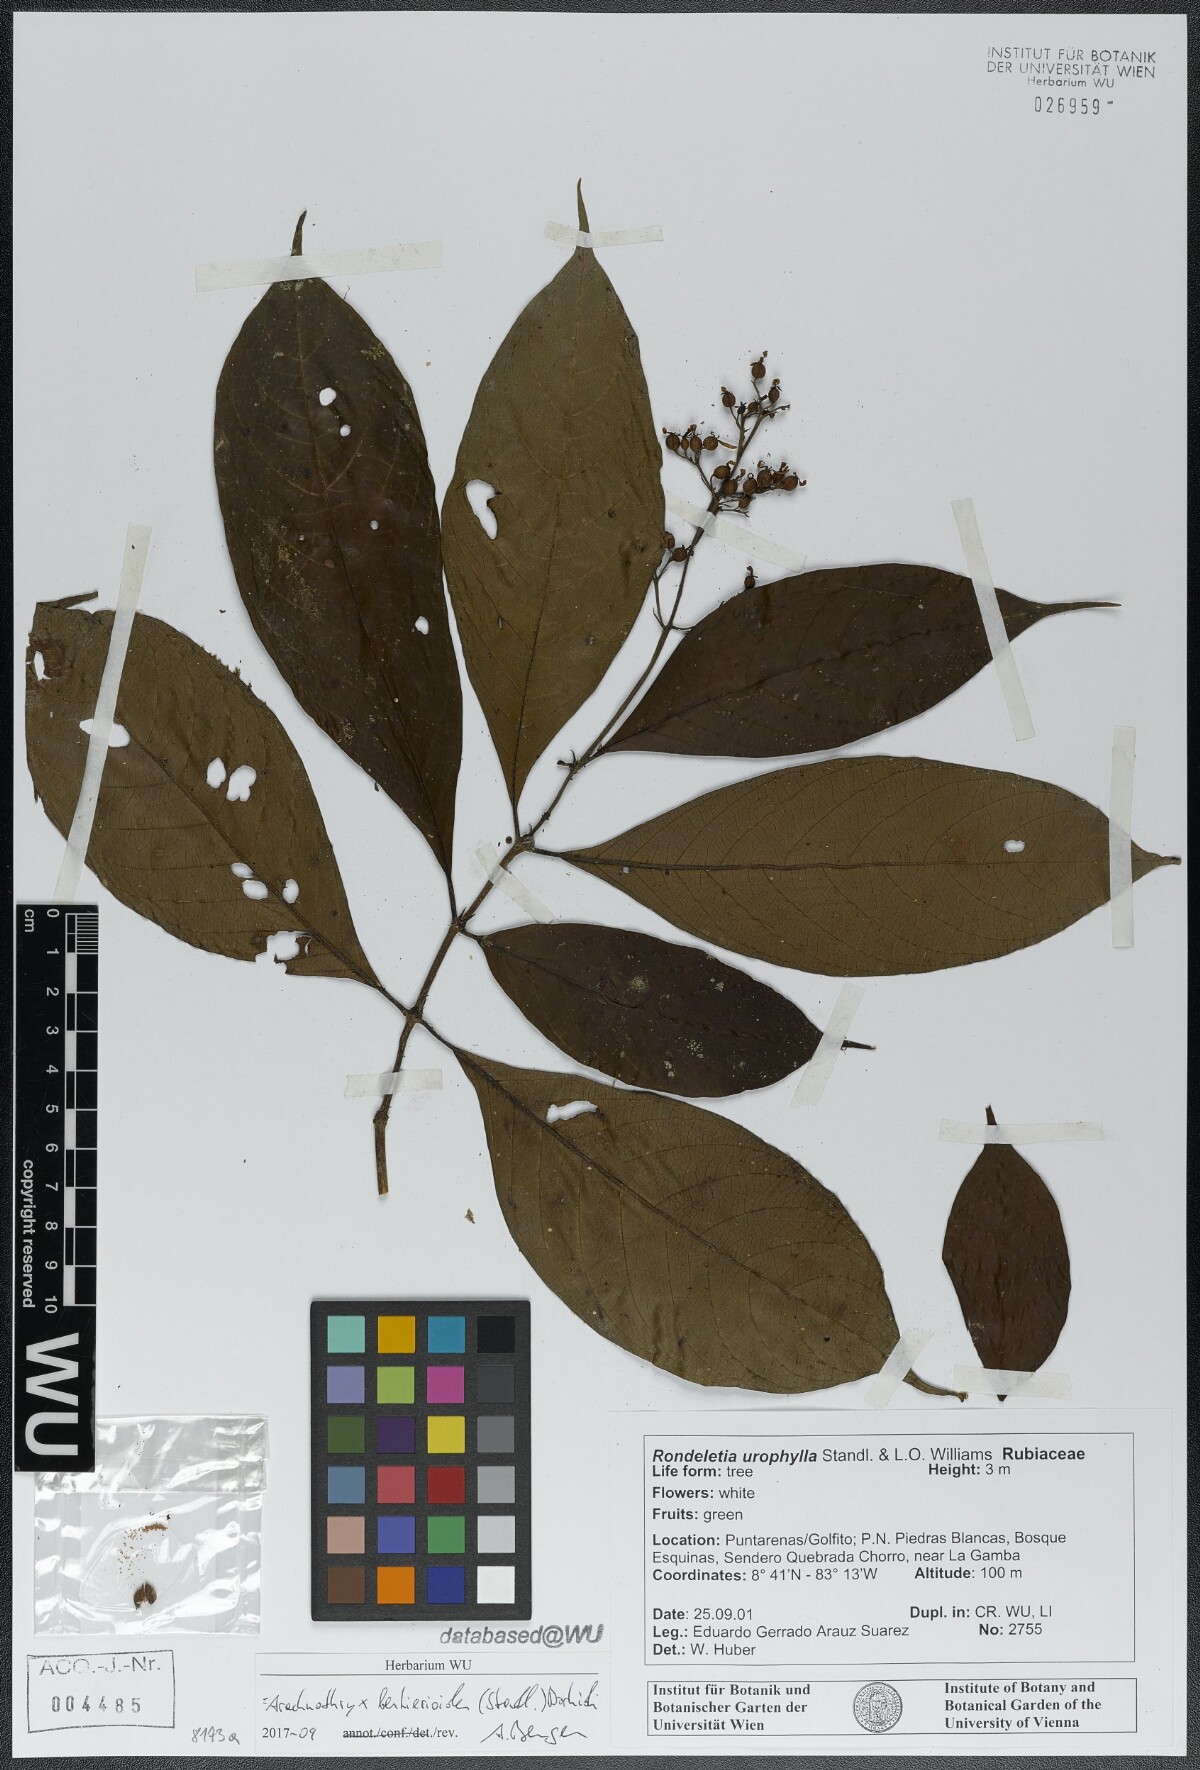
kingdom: Plantae
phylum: Tracheophyta
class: Magnoliopsida
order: Gentianales
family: Rubiaceae
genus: Arachnothryx
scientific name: Arachnothryx bertieroides
